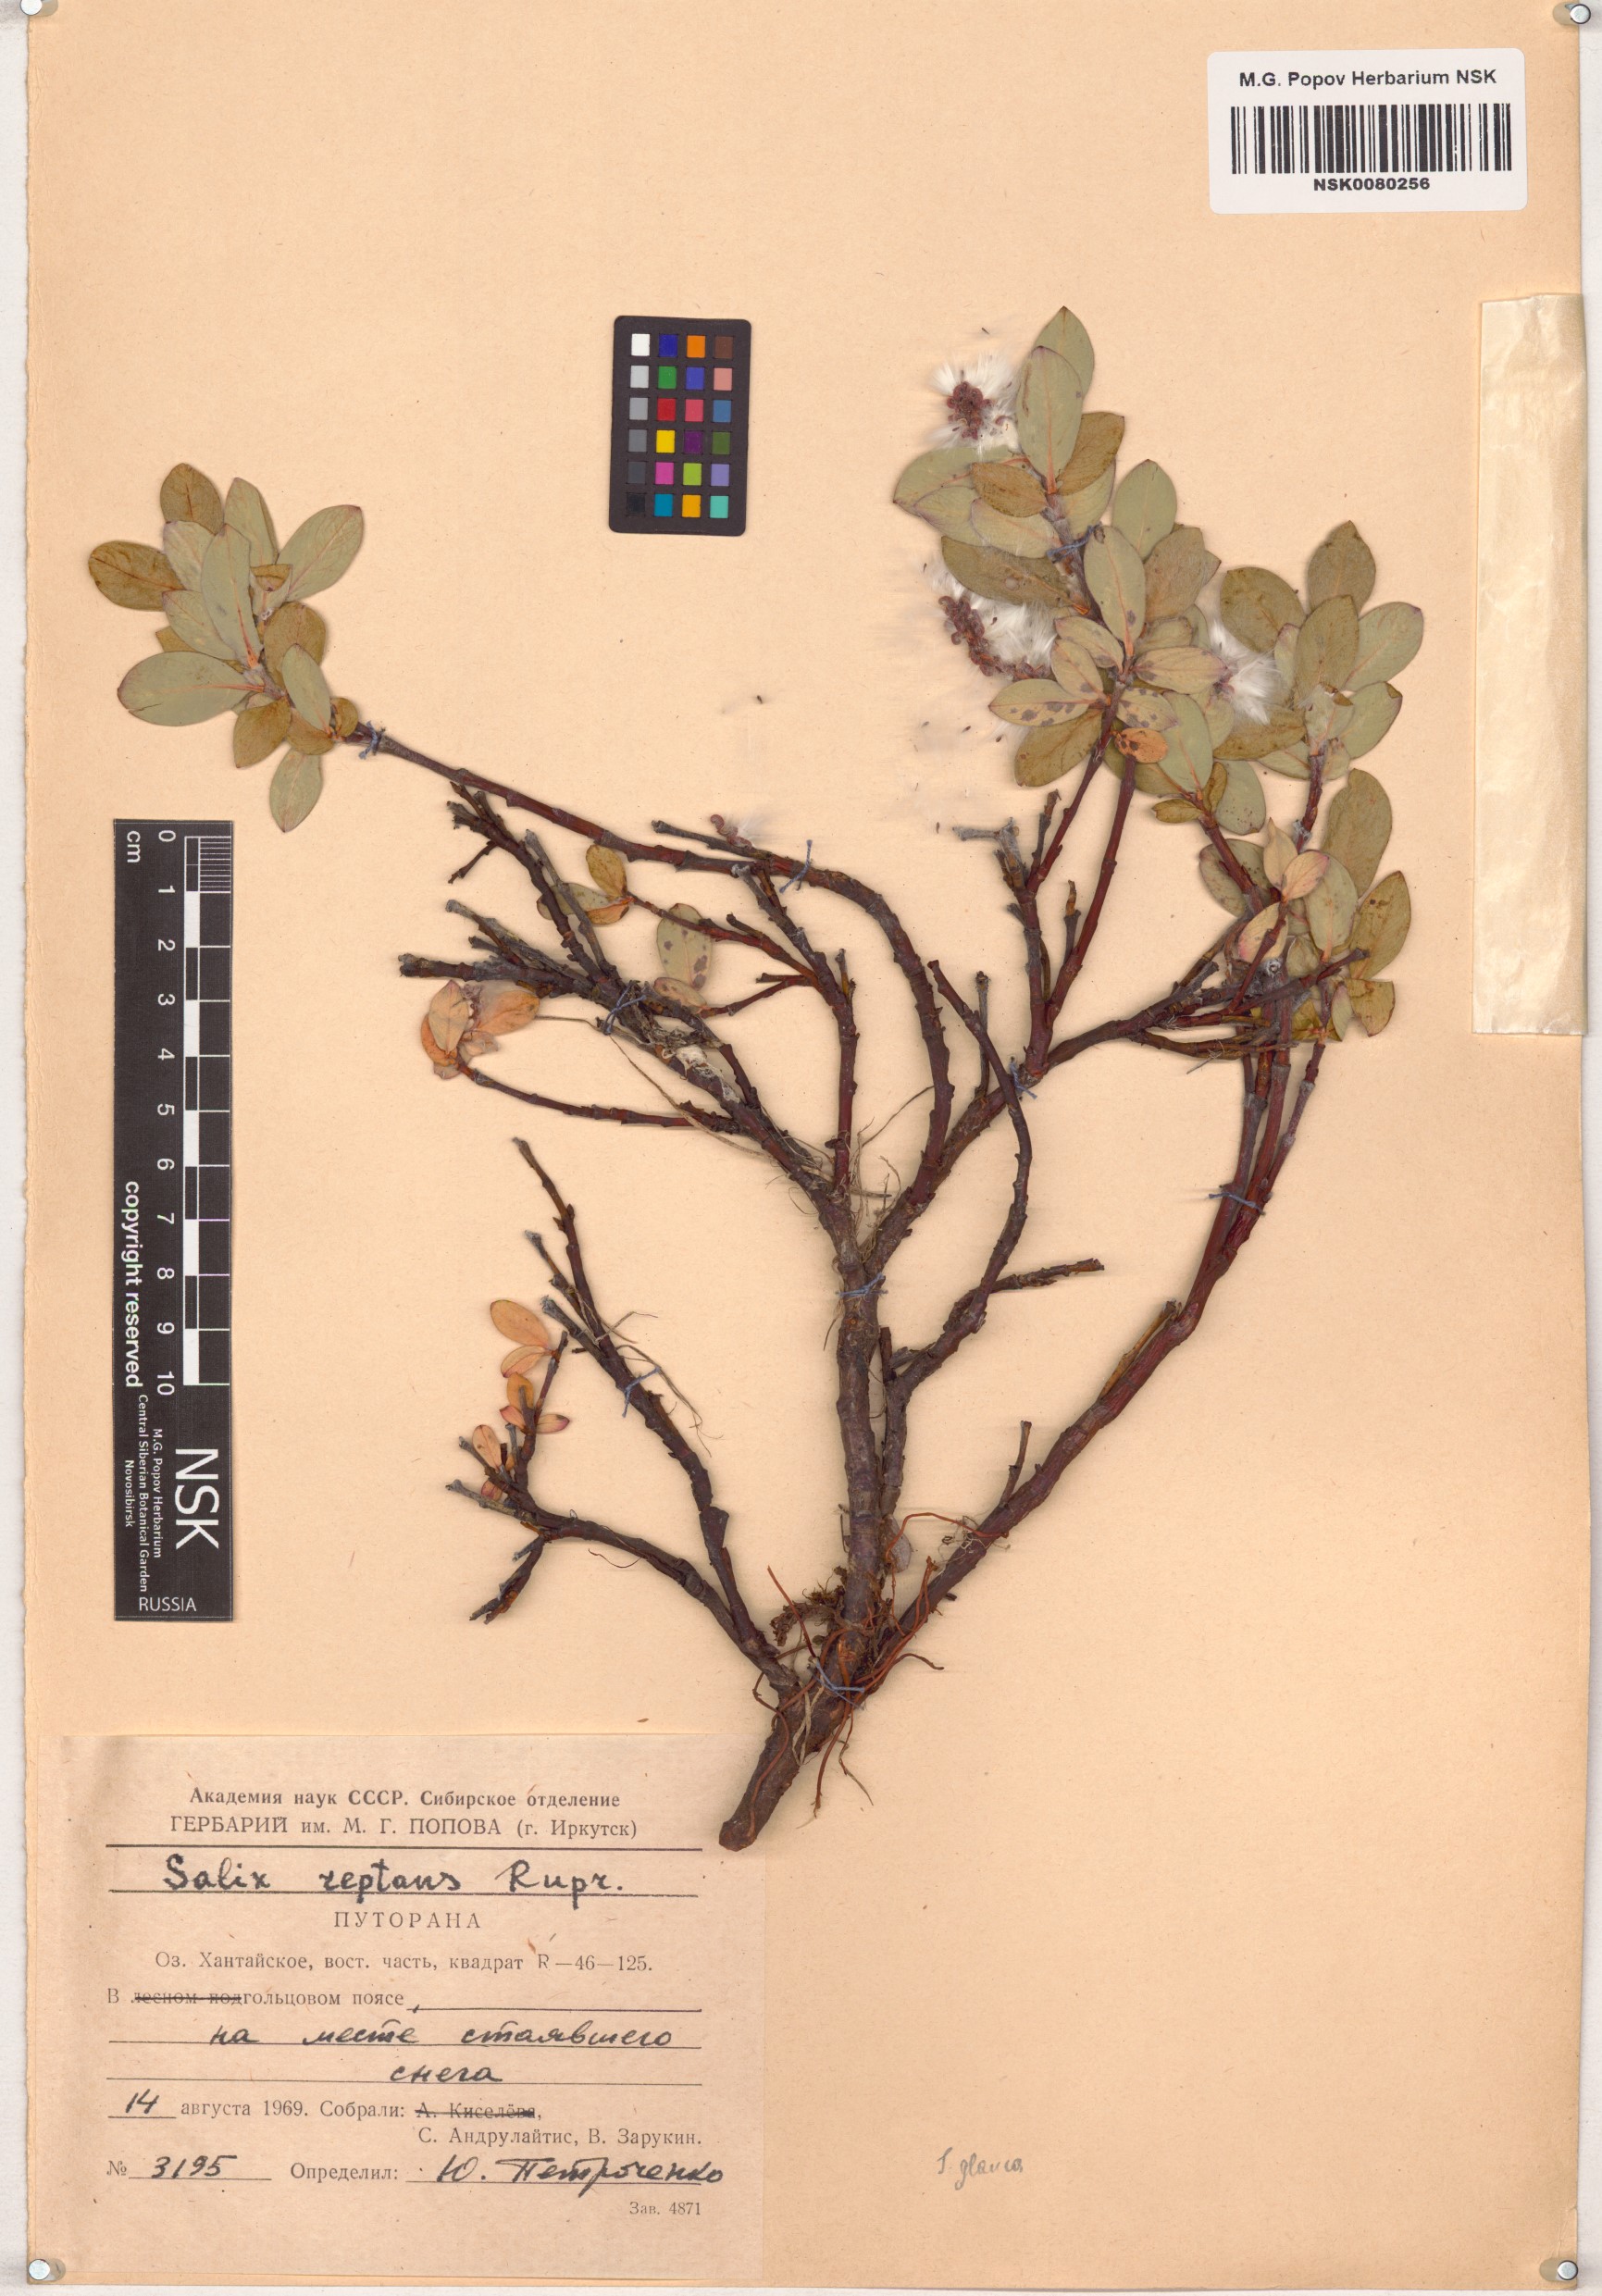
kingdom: Plantae
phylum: Tracheophyta
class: Magnoliopsida
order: Malpighiales
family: Salicaceae
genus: Salix
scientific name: Salix reptans
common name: Arctic creeping willow
